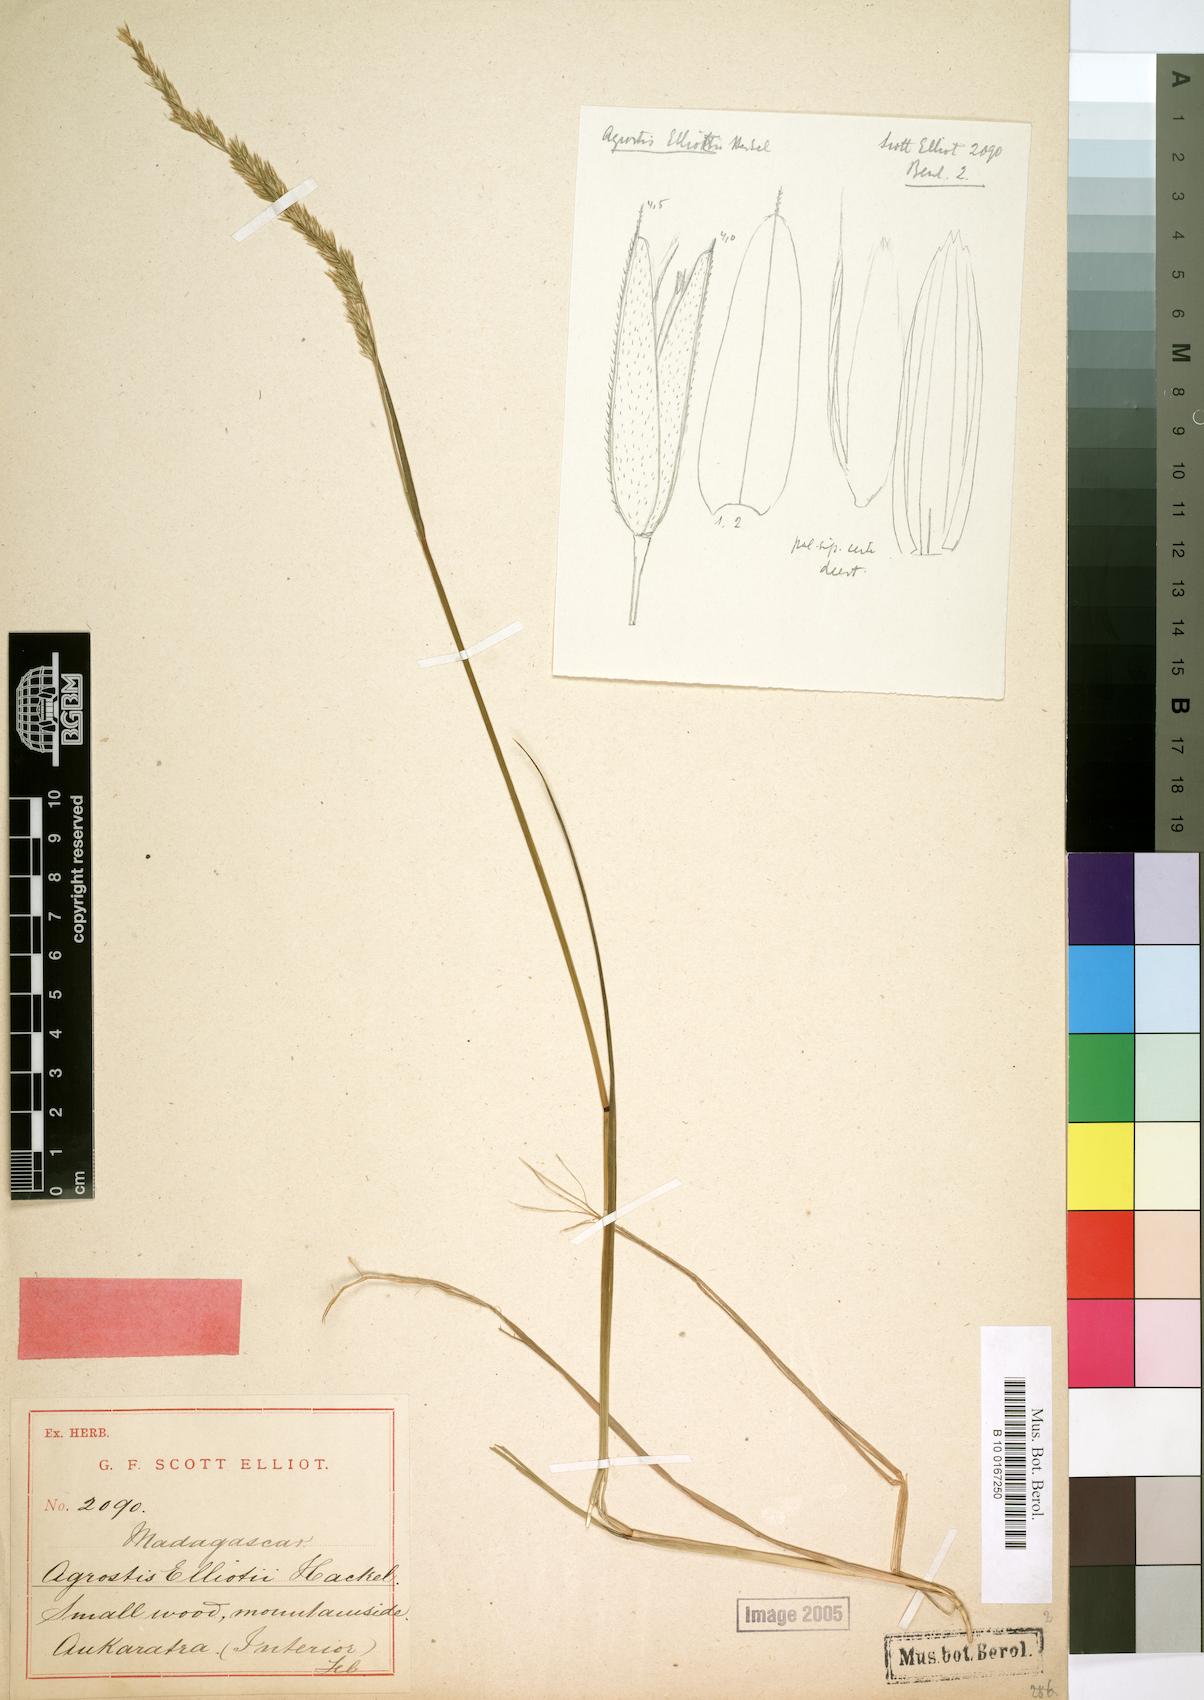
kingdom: Plantae
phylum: Tracheophyta
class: Liliopsida
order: Poales
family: Poaceae
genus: Agrostis
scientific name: Agrostis elliotii
